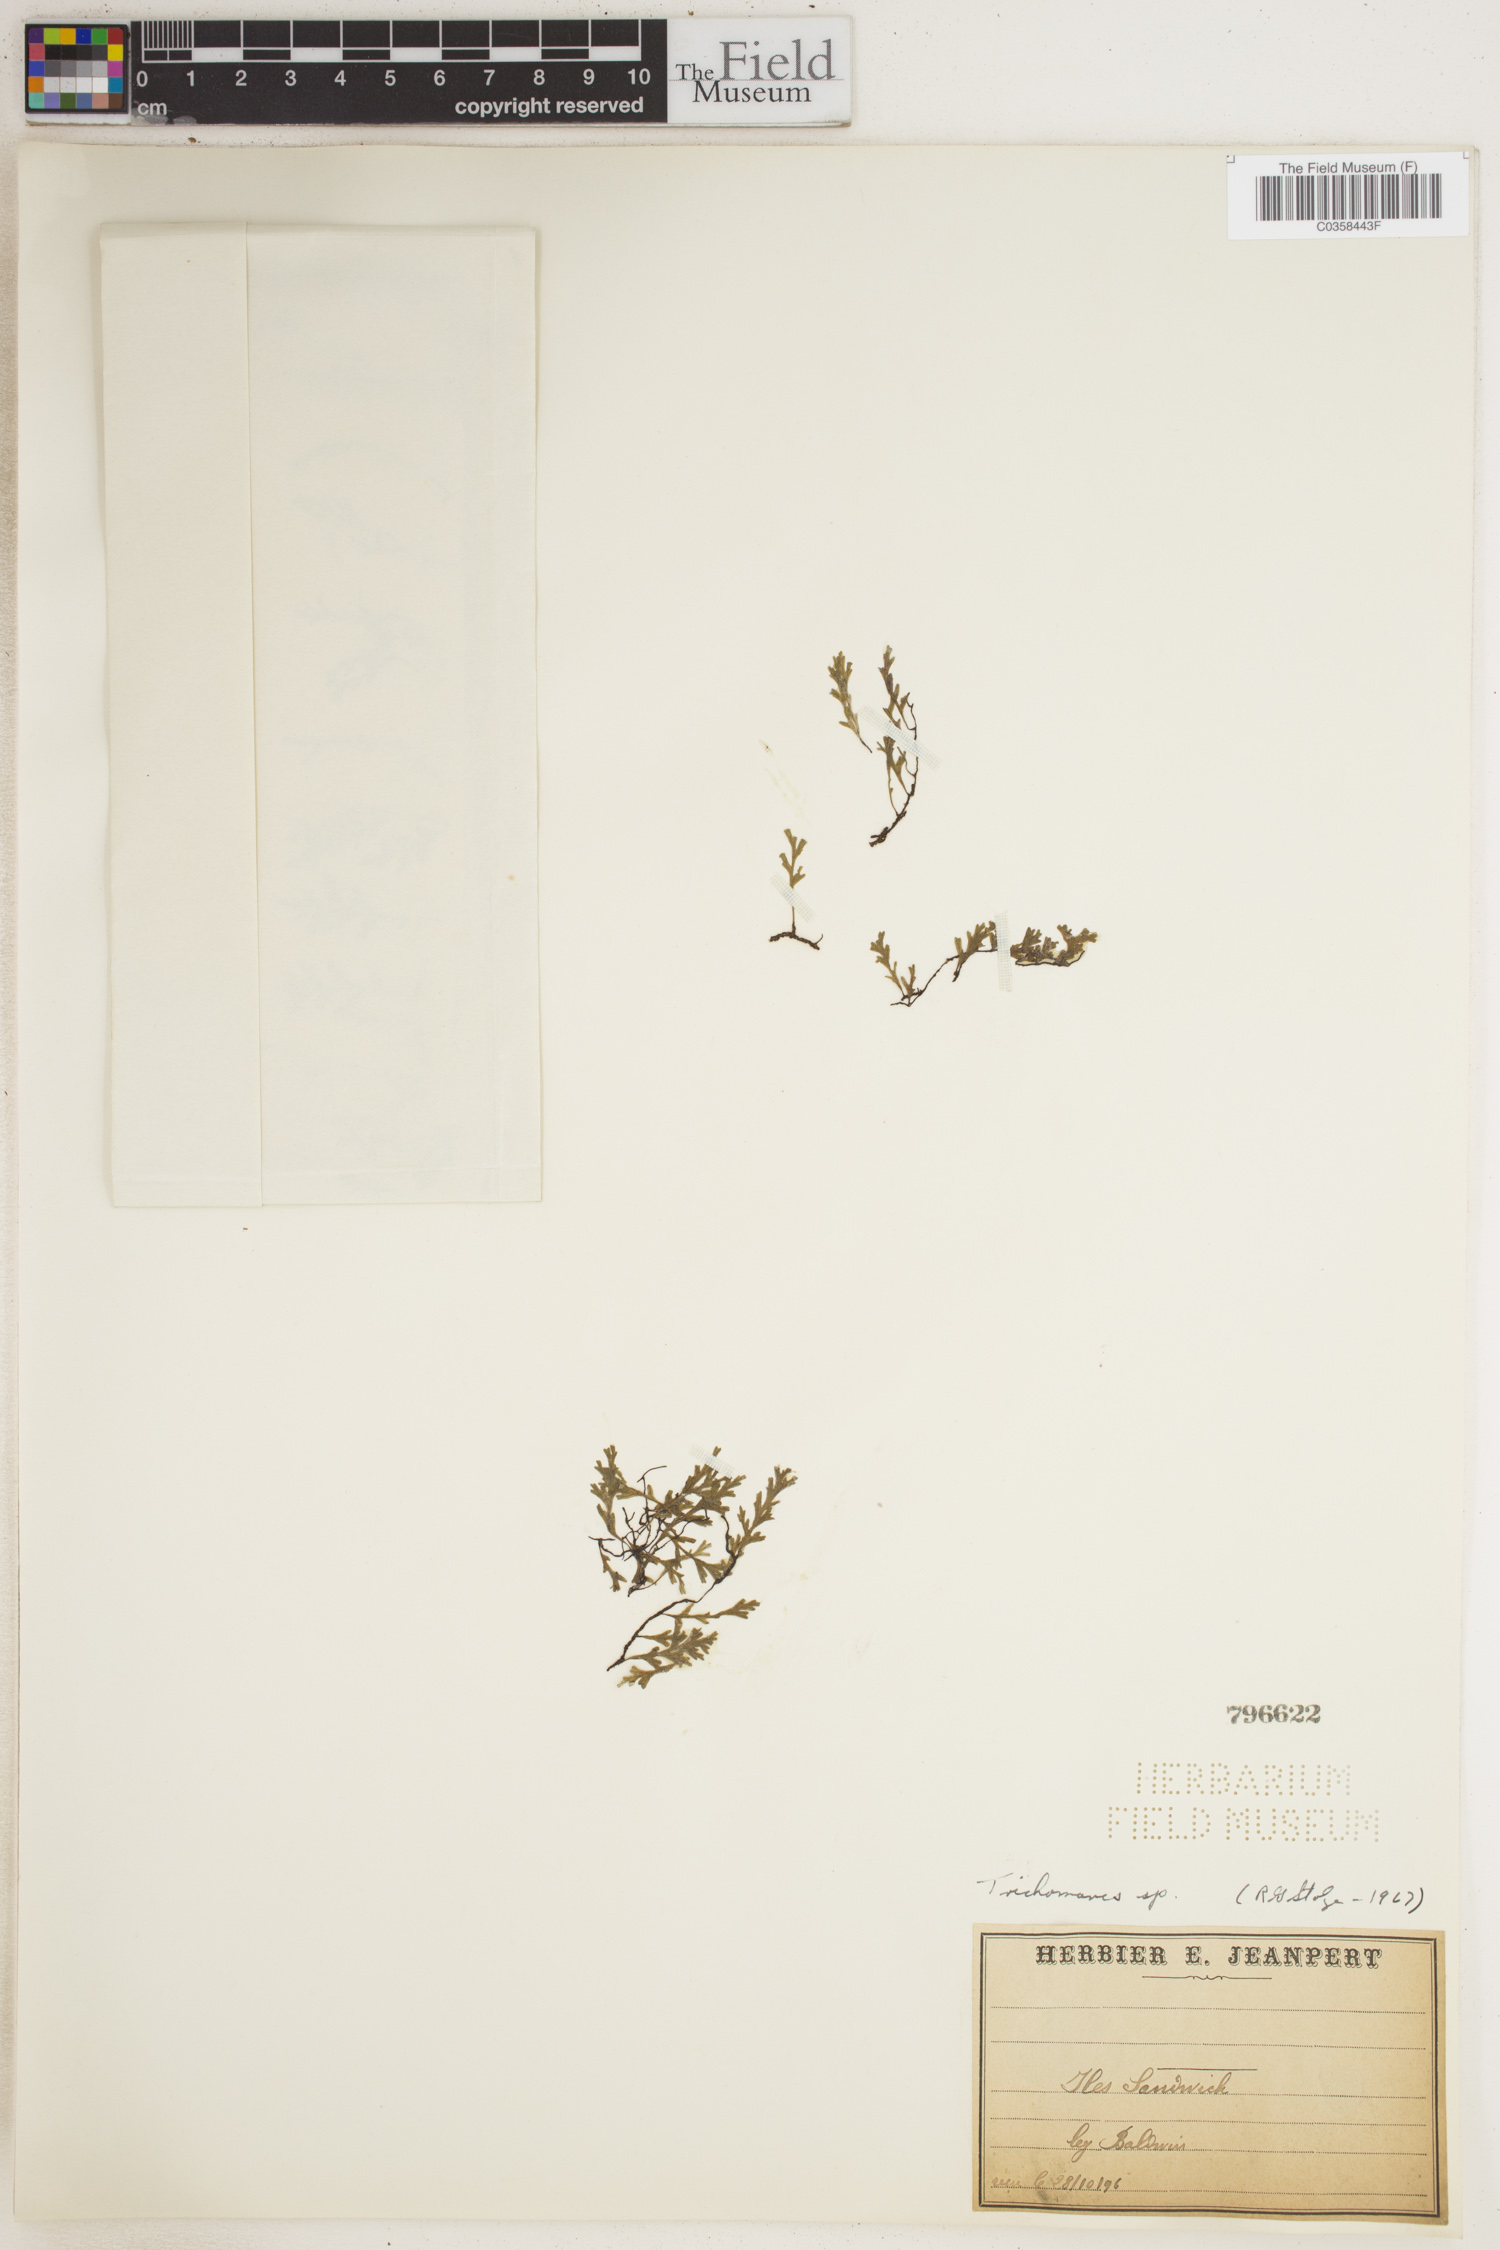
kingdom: Plantae
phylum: Tracheophyta
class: Polypodiopsida
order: Hymenophyllales
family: Hymenophyllaceae
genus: Trichomanes
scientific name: Trichomanes
